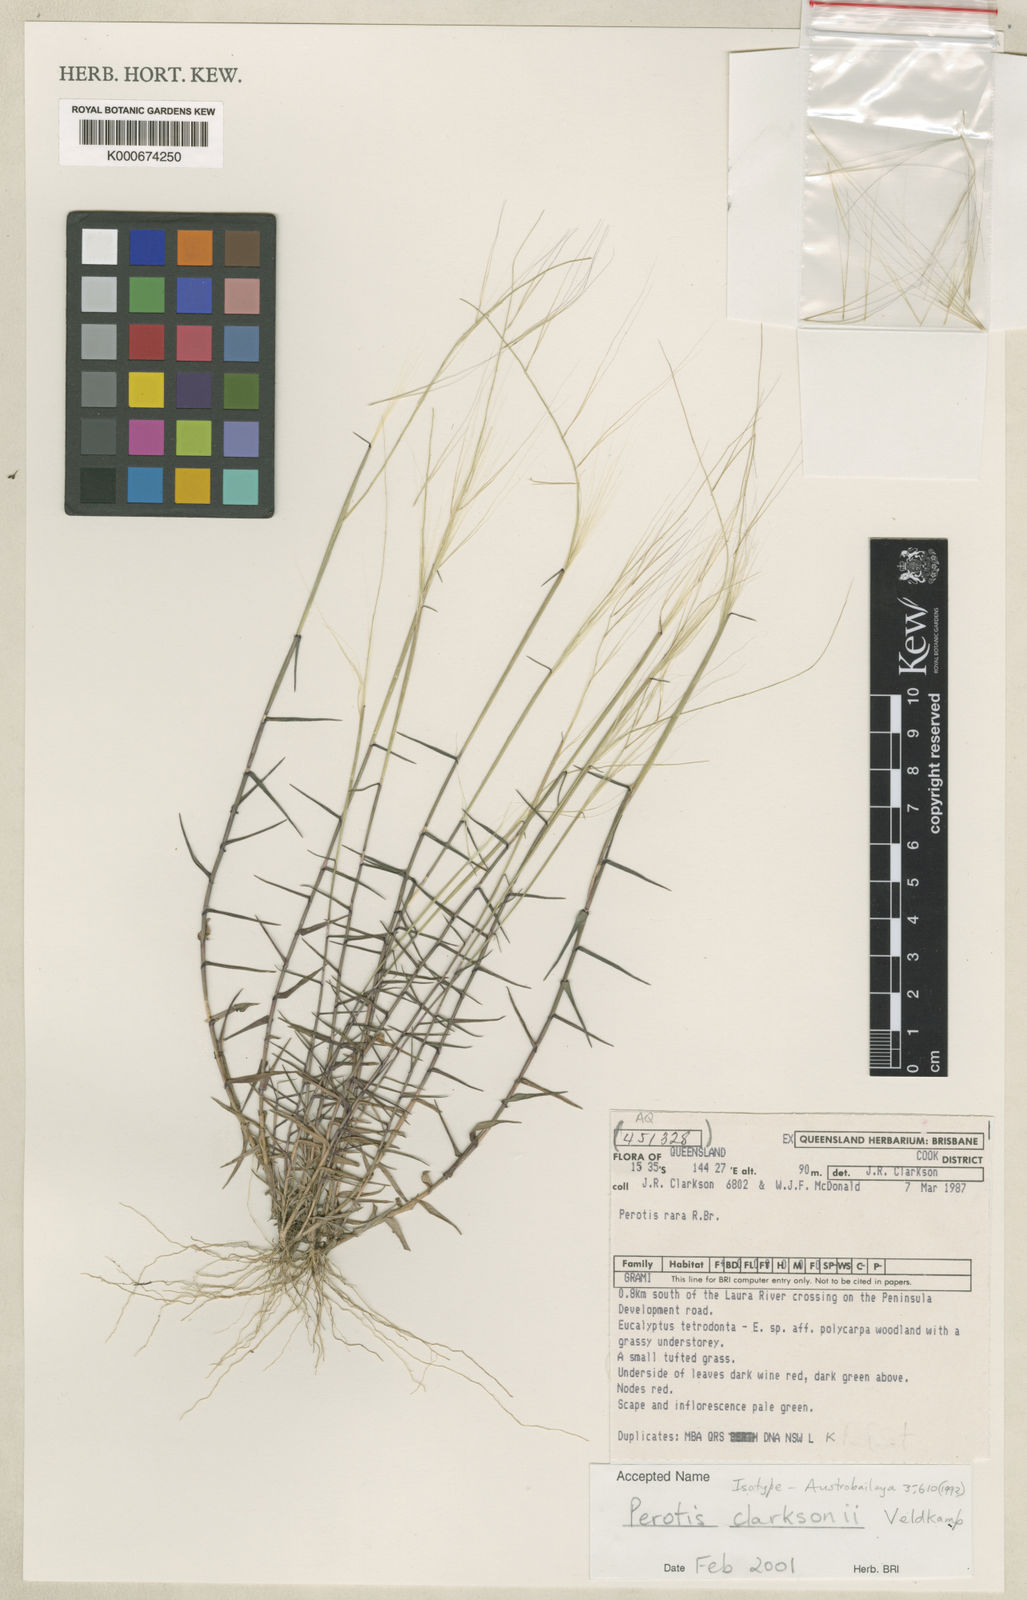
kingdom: Plantae
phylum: Tracheophyta
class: Liliopsida
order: Poales
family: Poaceae
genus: Perotis
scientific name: Perotis clarksonii
